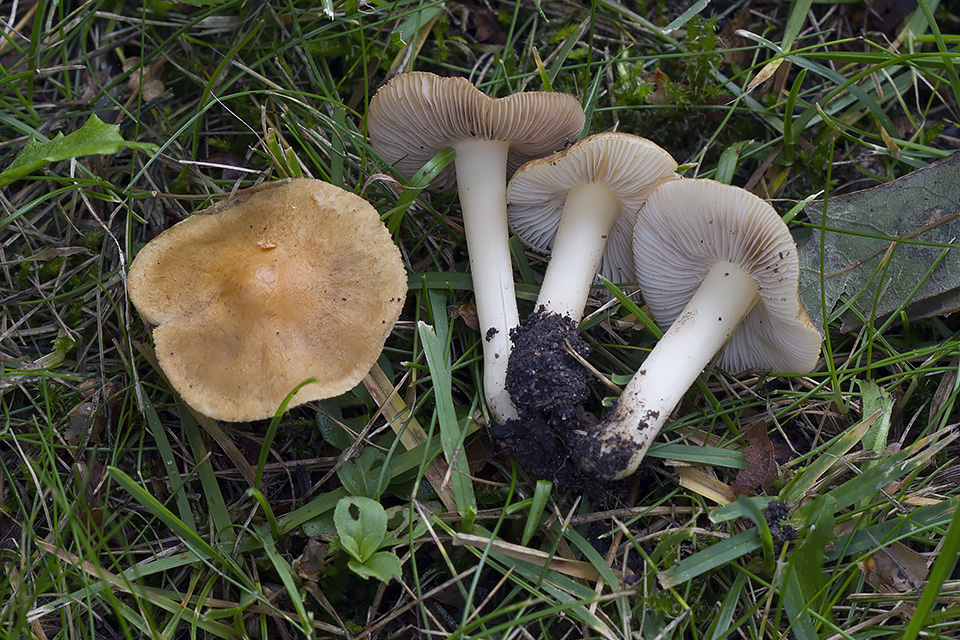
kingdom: Fungi
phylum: Basidiomycota
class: Agaricomycetes
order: Agaricales
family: Inocybaceae
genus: Inocybe
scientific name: Inocybe
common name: trævlhat
